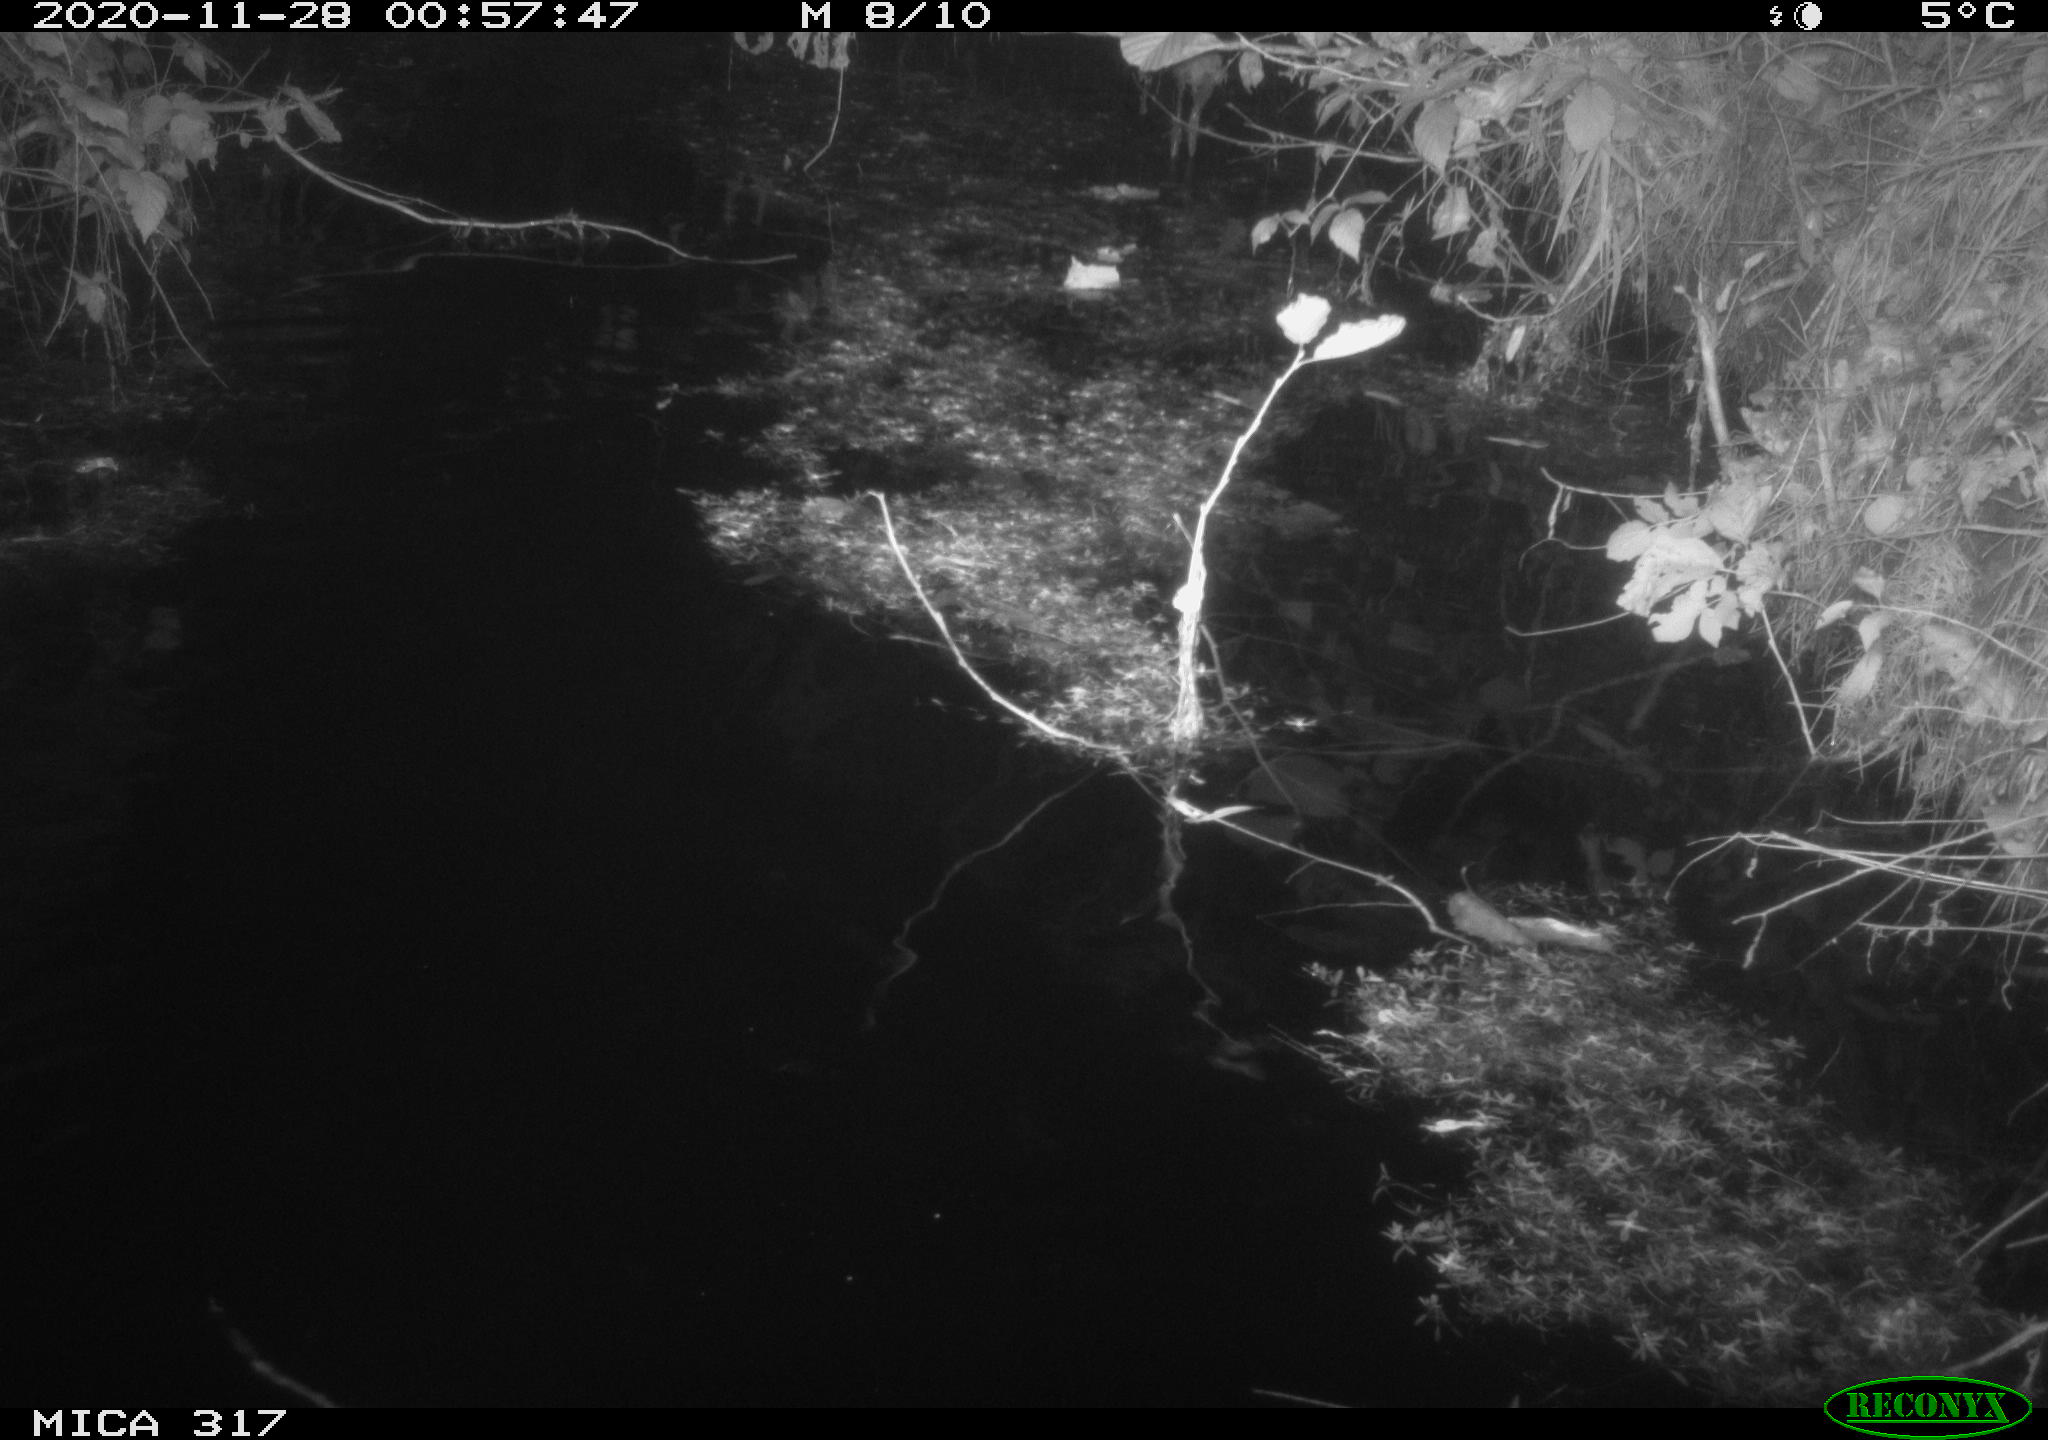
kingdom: Animalia
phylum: Chordata
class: Aves
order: Anseriformes
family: Anatidae
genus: Anas
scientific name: Anas platyrhynchos
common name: Mallard
